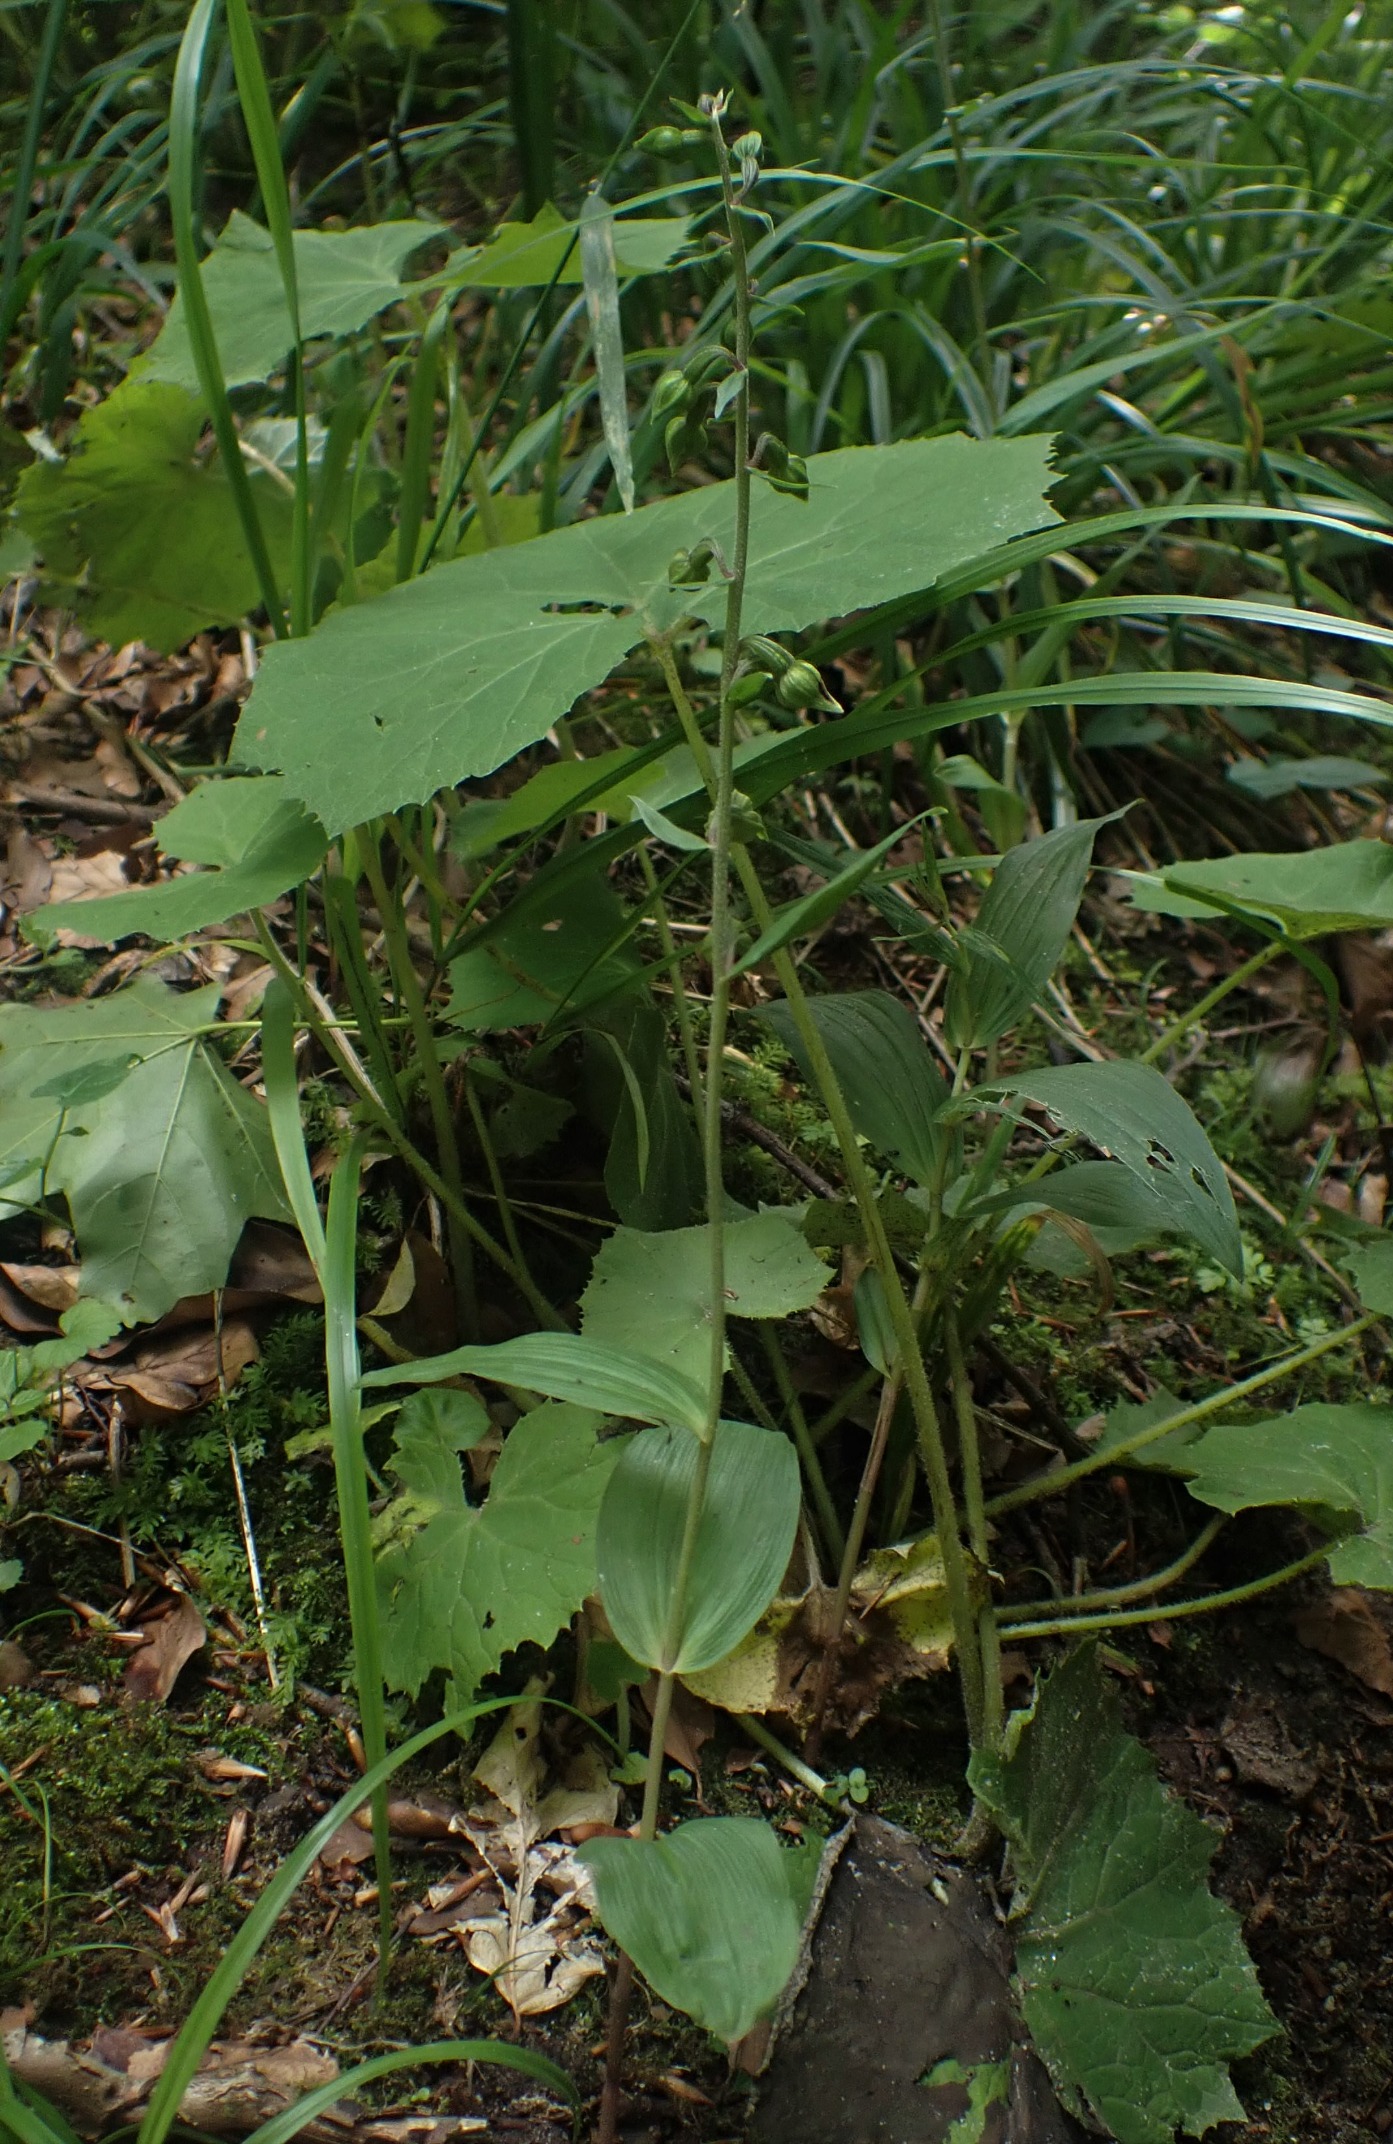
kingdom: Plantae
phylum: Tracheophyta
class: Liliopsida
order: Asparagales
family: Orchidaceae
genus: Epipactis
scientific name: Epipactis helleborine
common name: Skov-hullæbe
